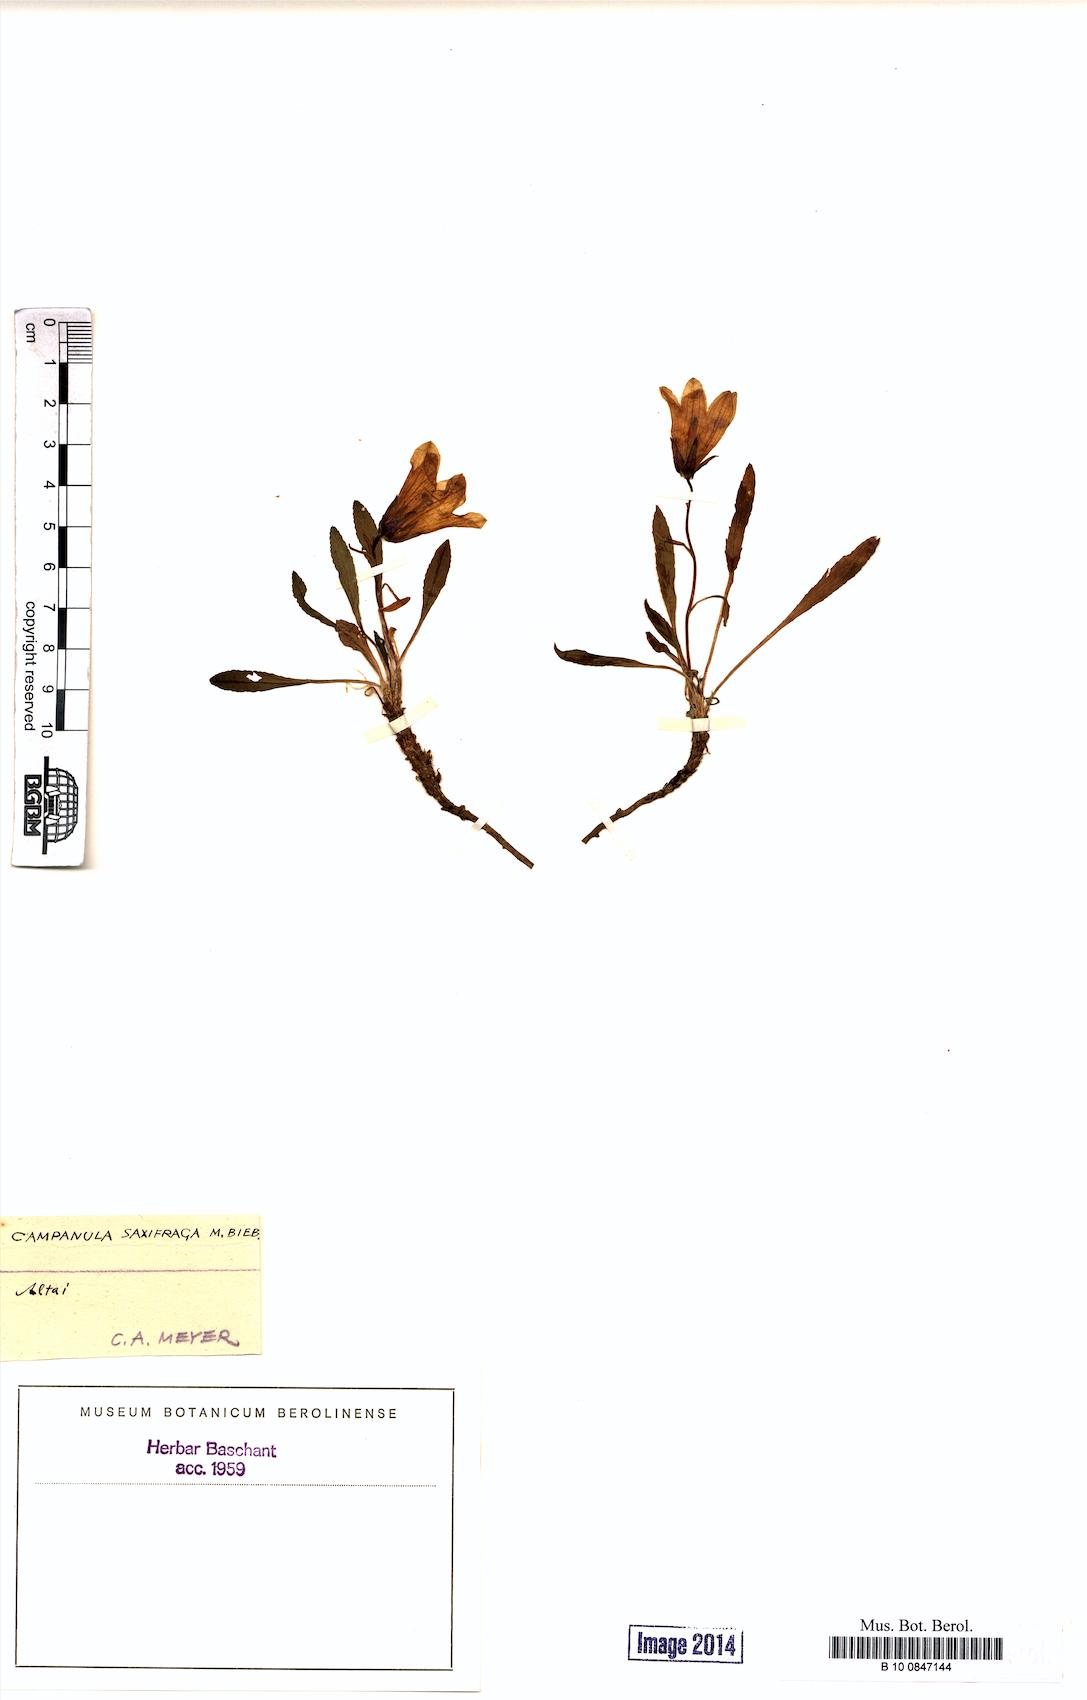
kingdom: Plantae
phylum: Tracheophyta
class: Magnoliopsida
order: Asterales
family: Campanulaceae
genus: Campanula
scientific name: Campanula saxifraga
